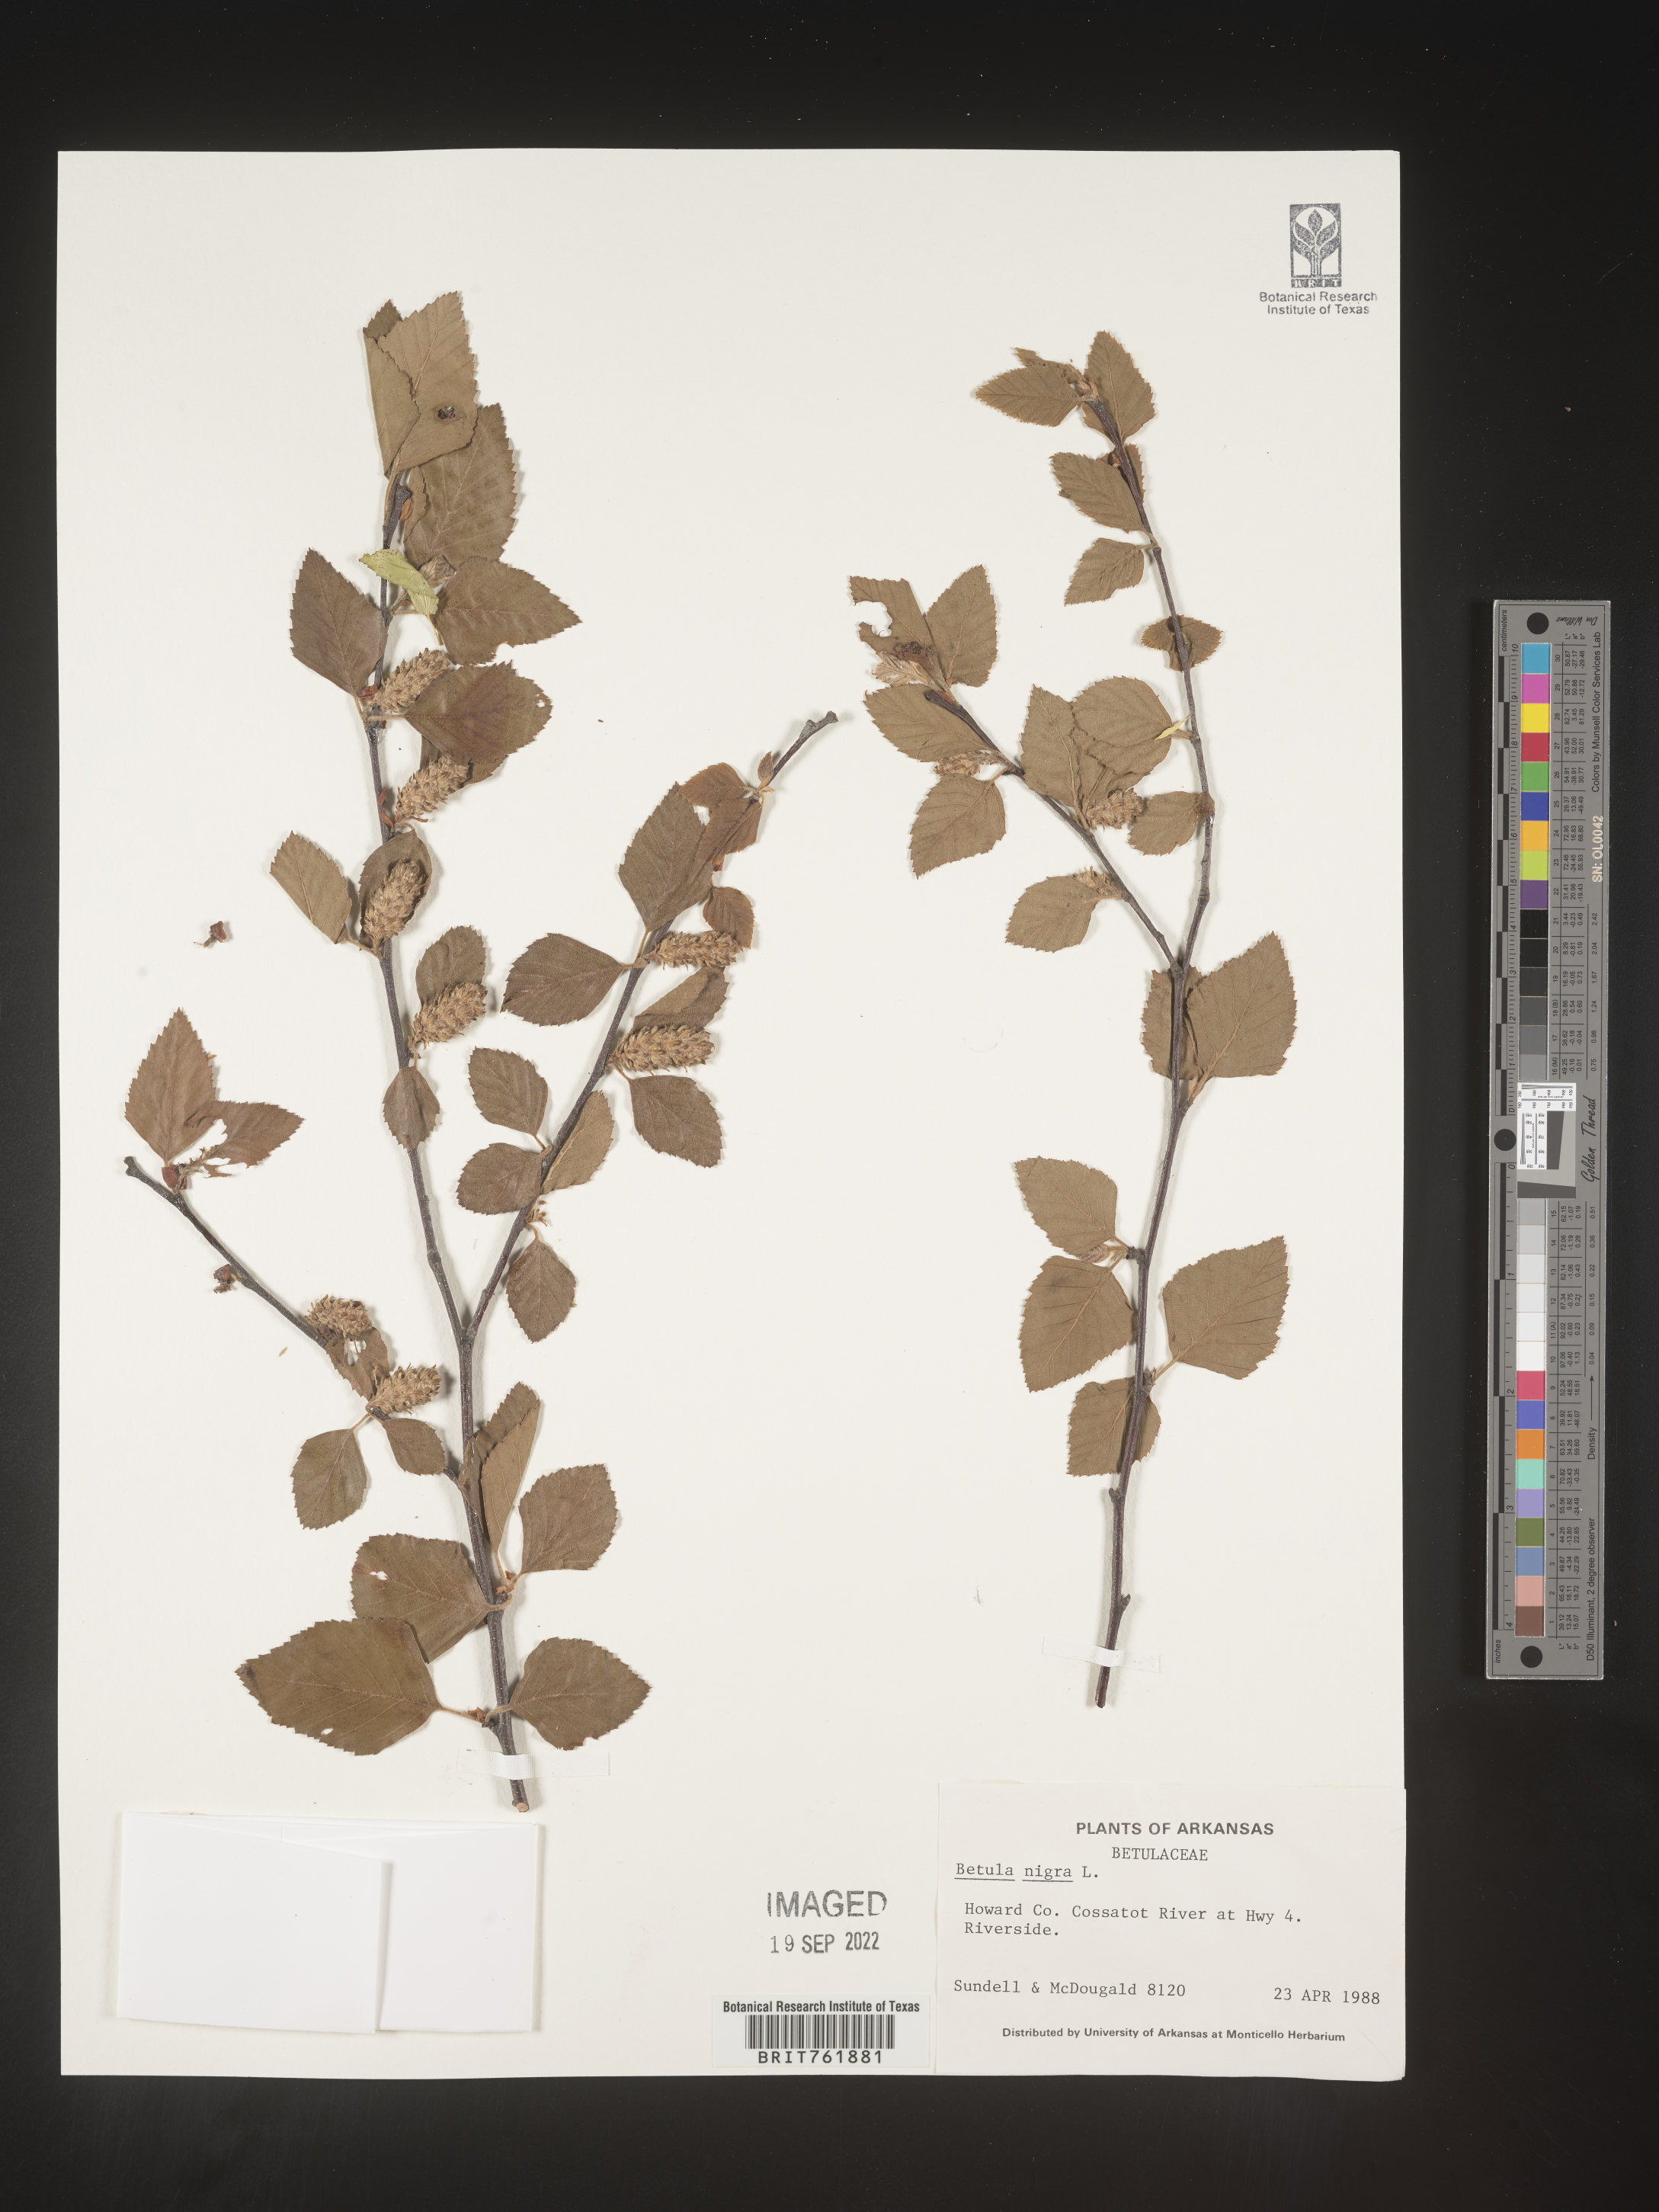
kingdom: Plantae
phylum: Tracheophyta
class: Magnoliopsida
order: Fagales
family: Betulaceae
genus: Betula
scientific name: Betula nigra
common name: Black birch
